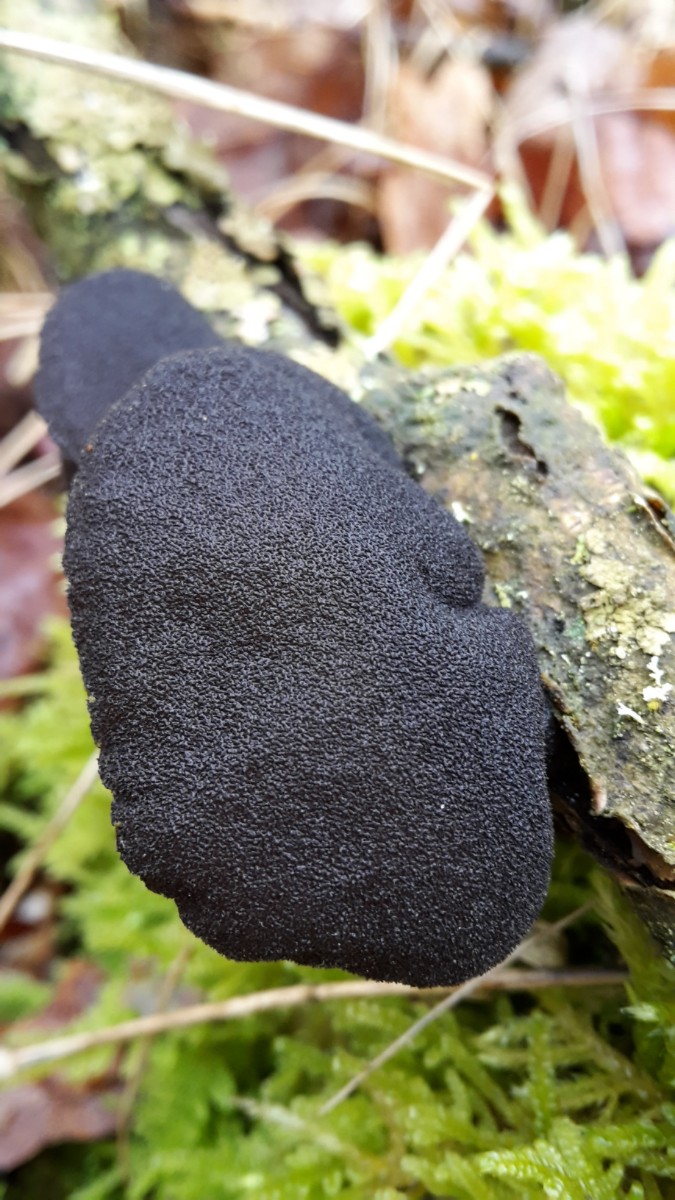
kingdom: Fungi
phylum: Basidiomycota
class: Agaricomycetes
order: Auriculariales
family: Auriculariaceae
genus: Exidia
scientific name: Exidia glandulosa
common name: ege-bævretop
